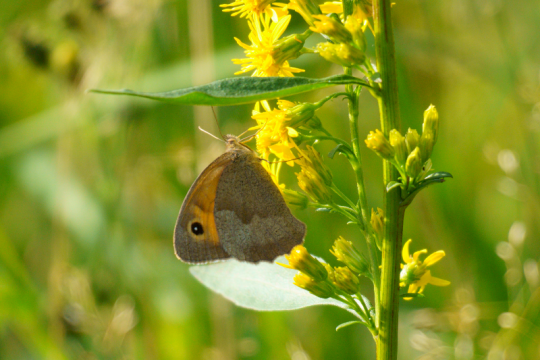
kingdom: Animalia
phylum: Arthropoda
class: Insecta
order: Lepidoptera
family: Nymphalidae
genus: Maniola
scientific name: Maniola jurtina
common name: Meadow Brown
